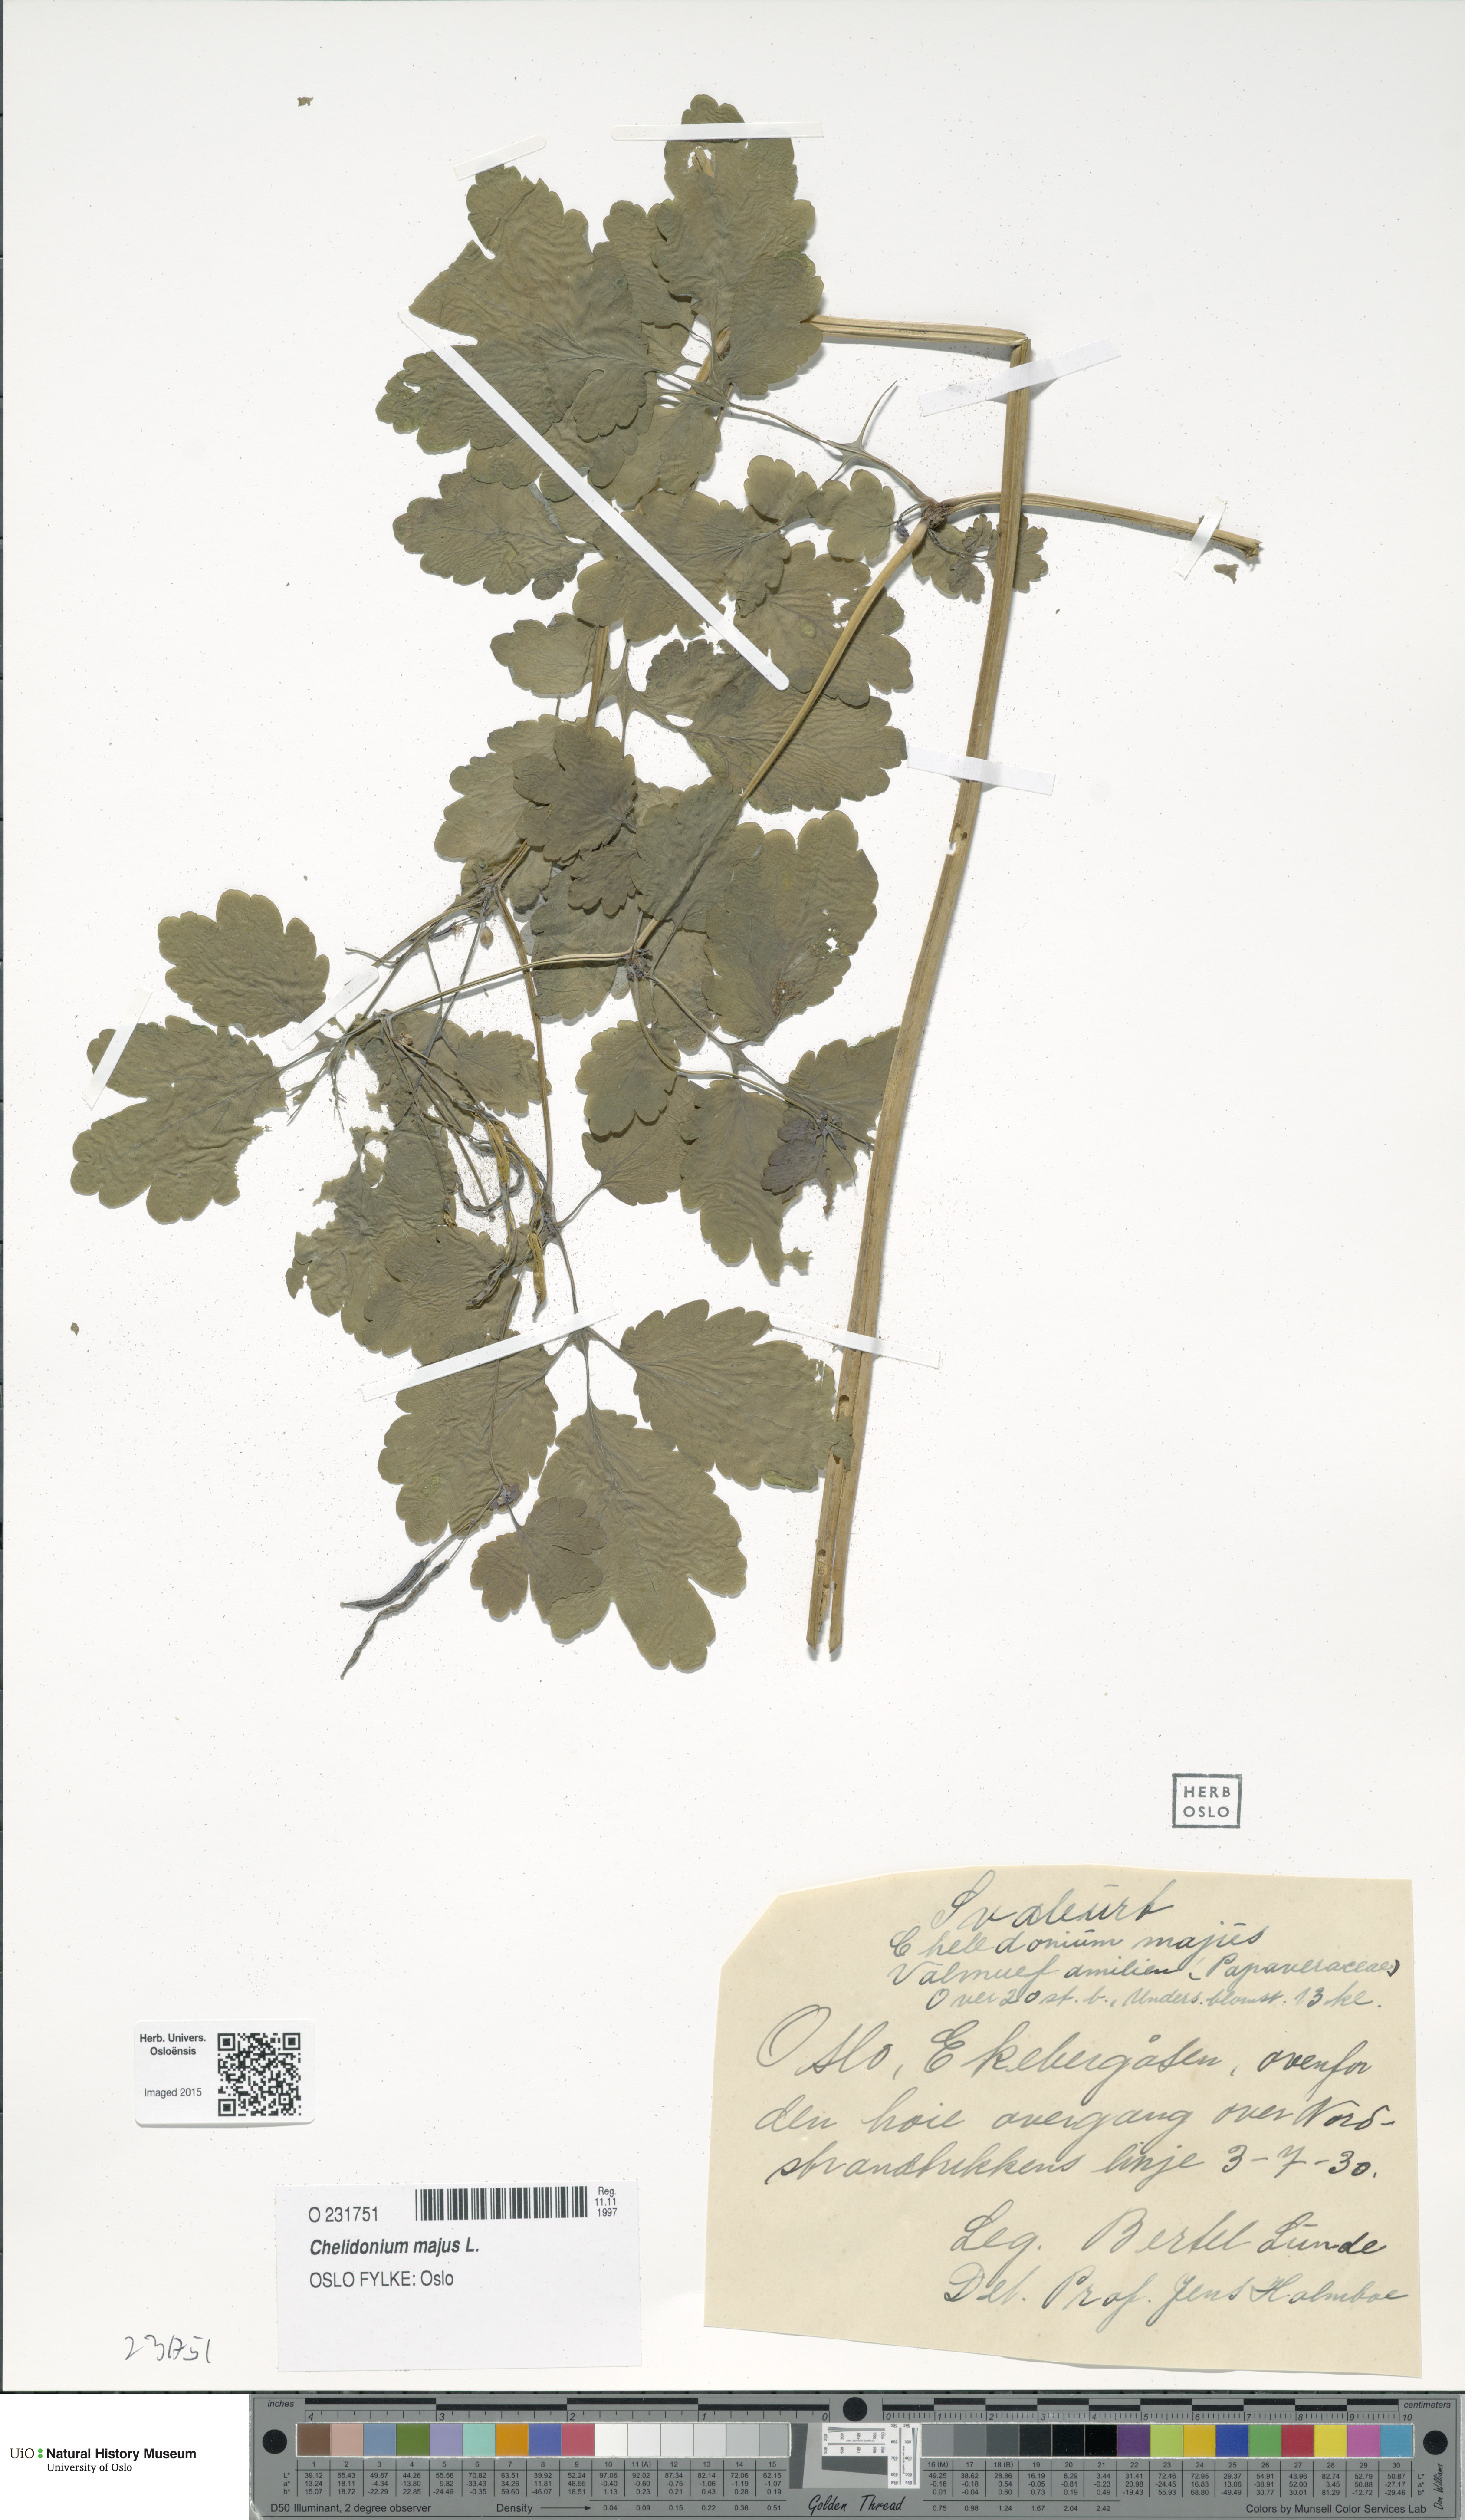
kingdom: Plantae
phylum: Tracheophyta
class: Magnoliopsida
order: Ranunculales
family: Papaveraceae
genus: Chelidonium
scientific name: Chelidonium majus
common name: Greater celandine
